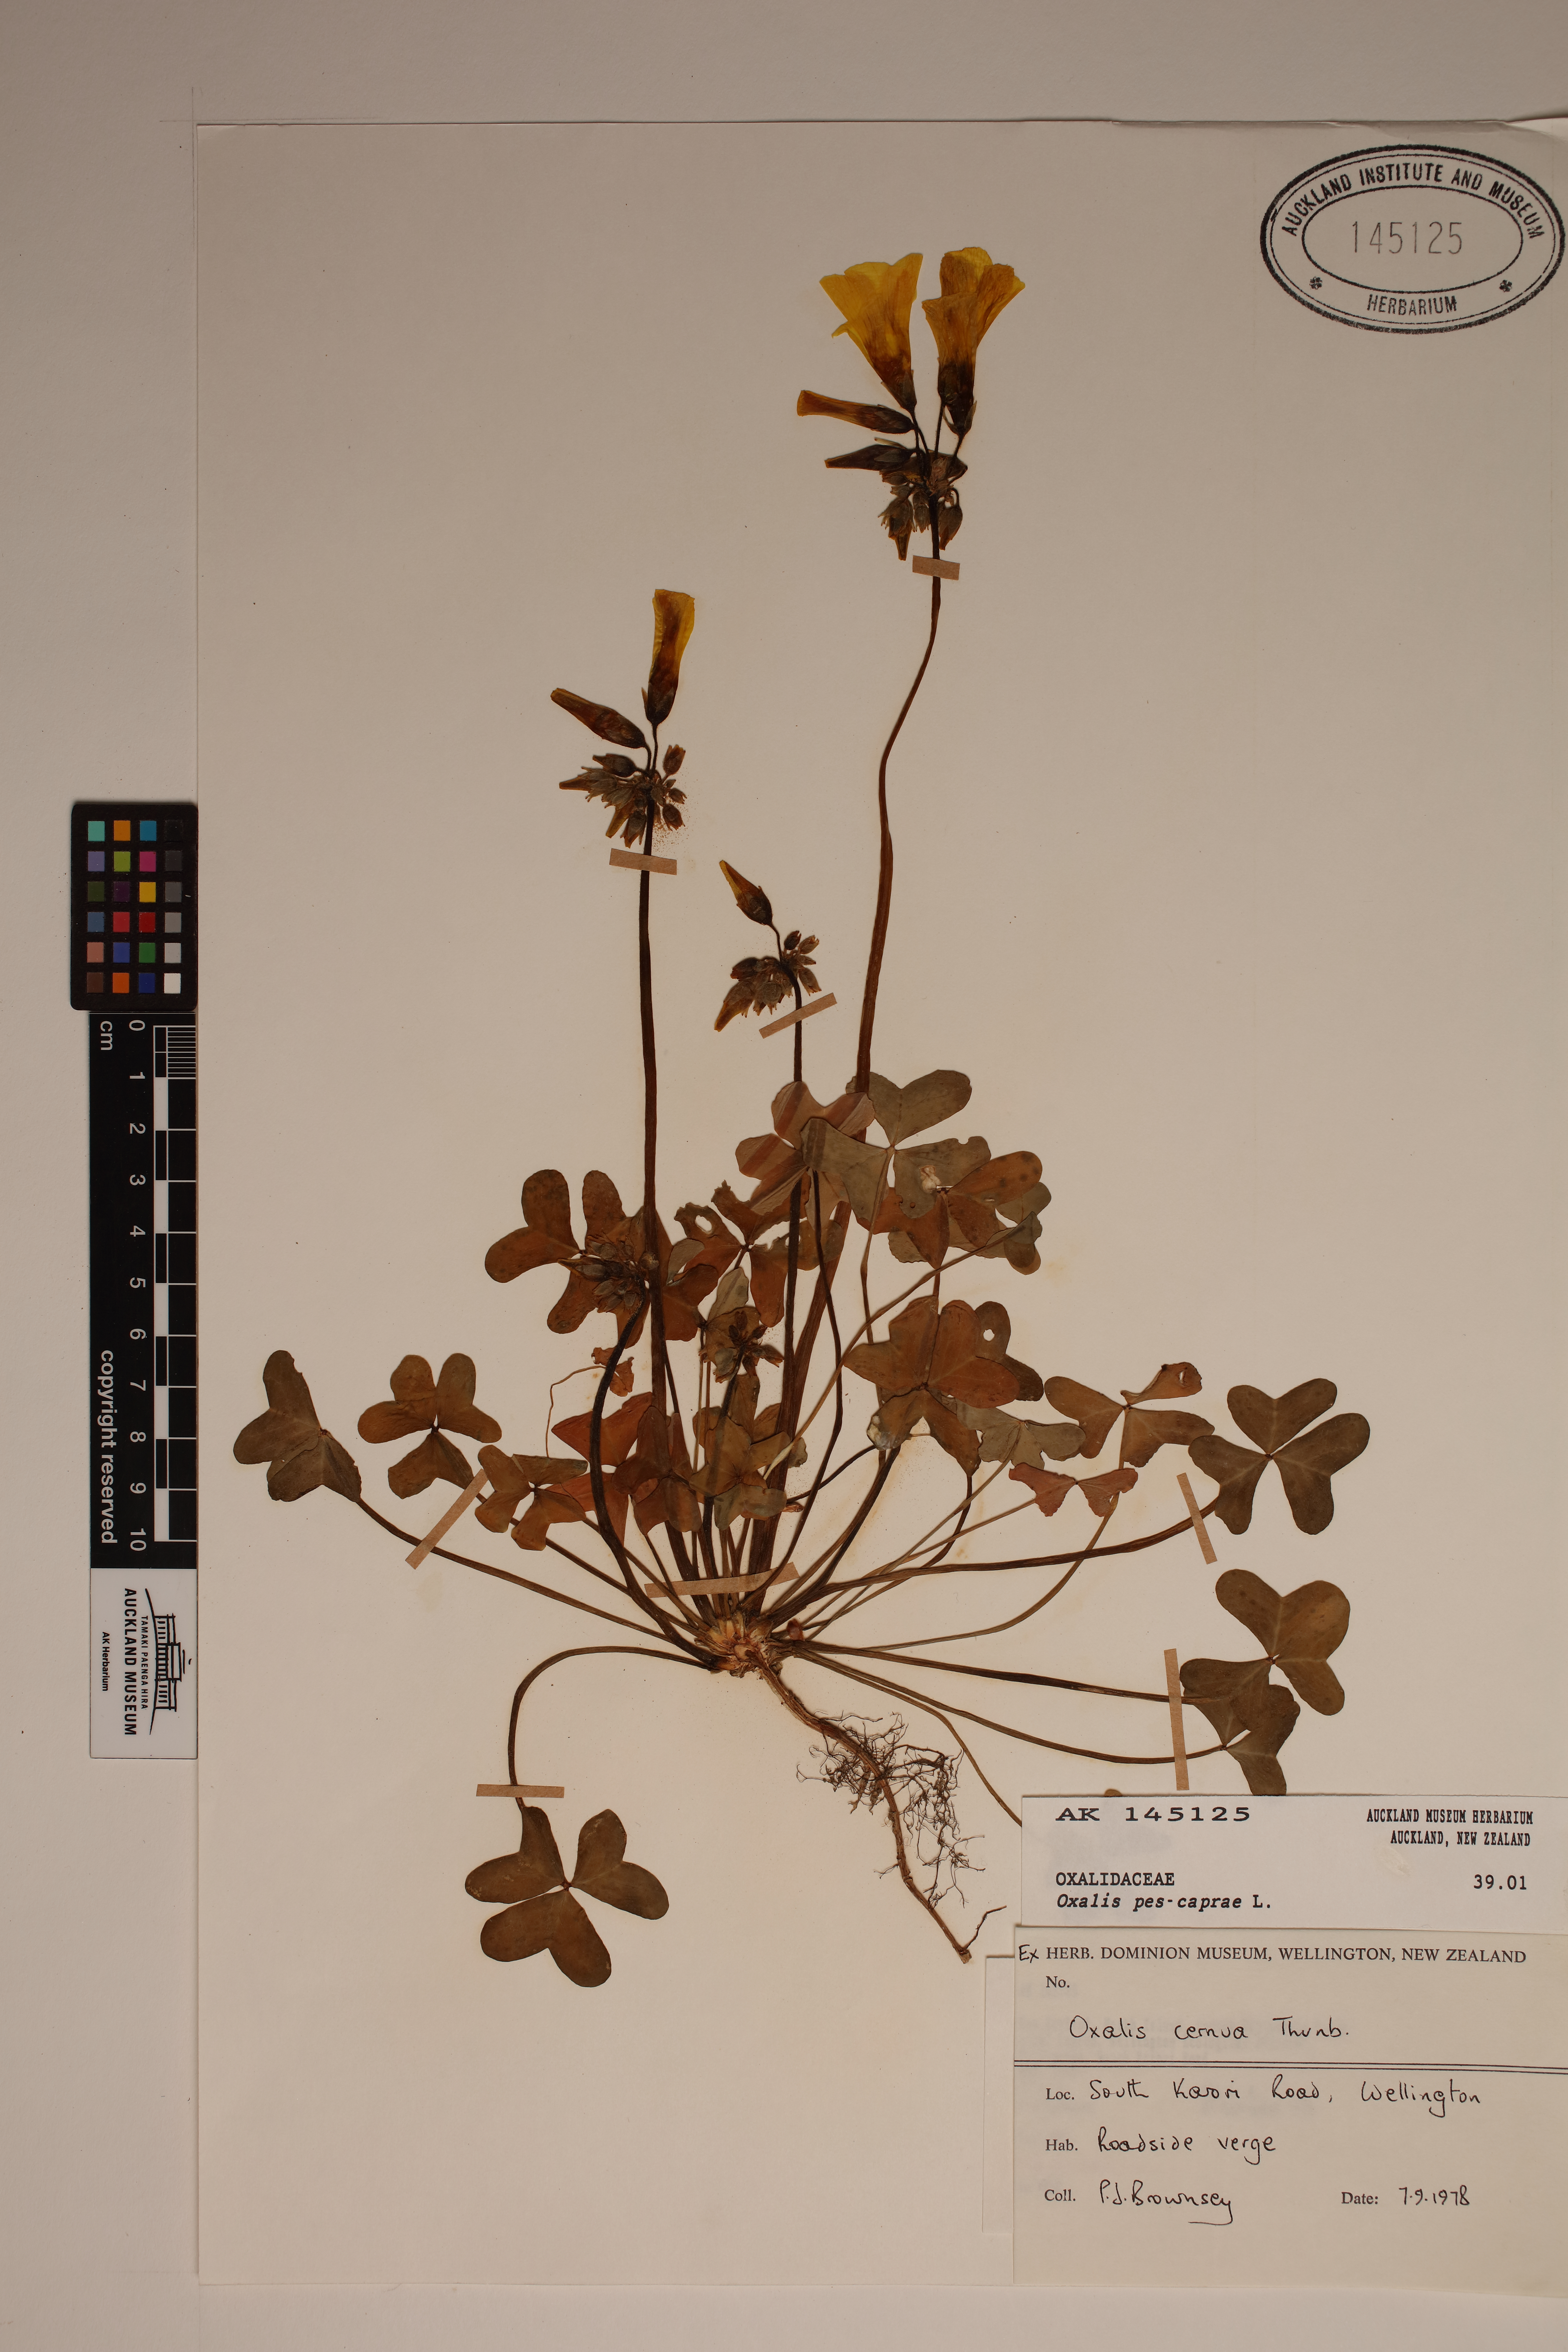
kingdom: Plantae
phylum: Tracheophyta
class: Magnoliopsida
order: Oxalidales
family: Oxalidaceae
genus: Oxalis
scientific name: Oxalis pes-caprae
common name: Bermuda-buttercup
